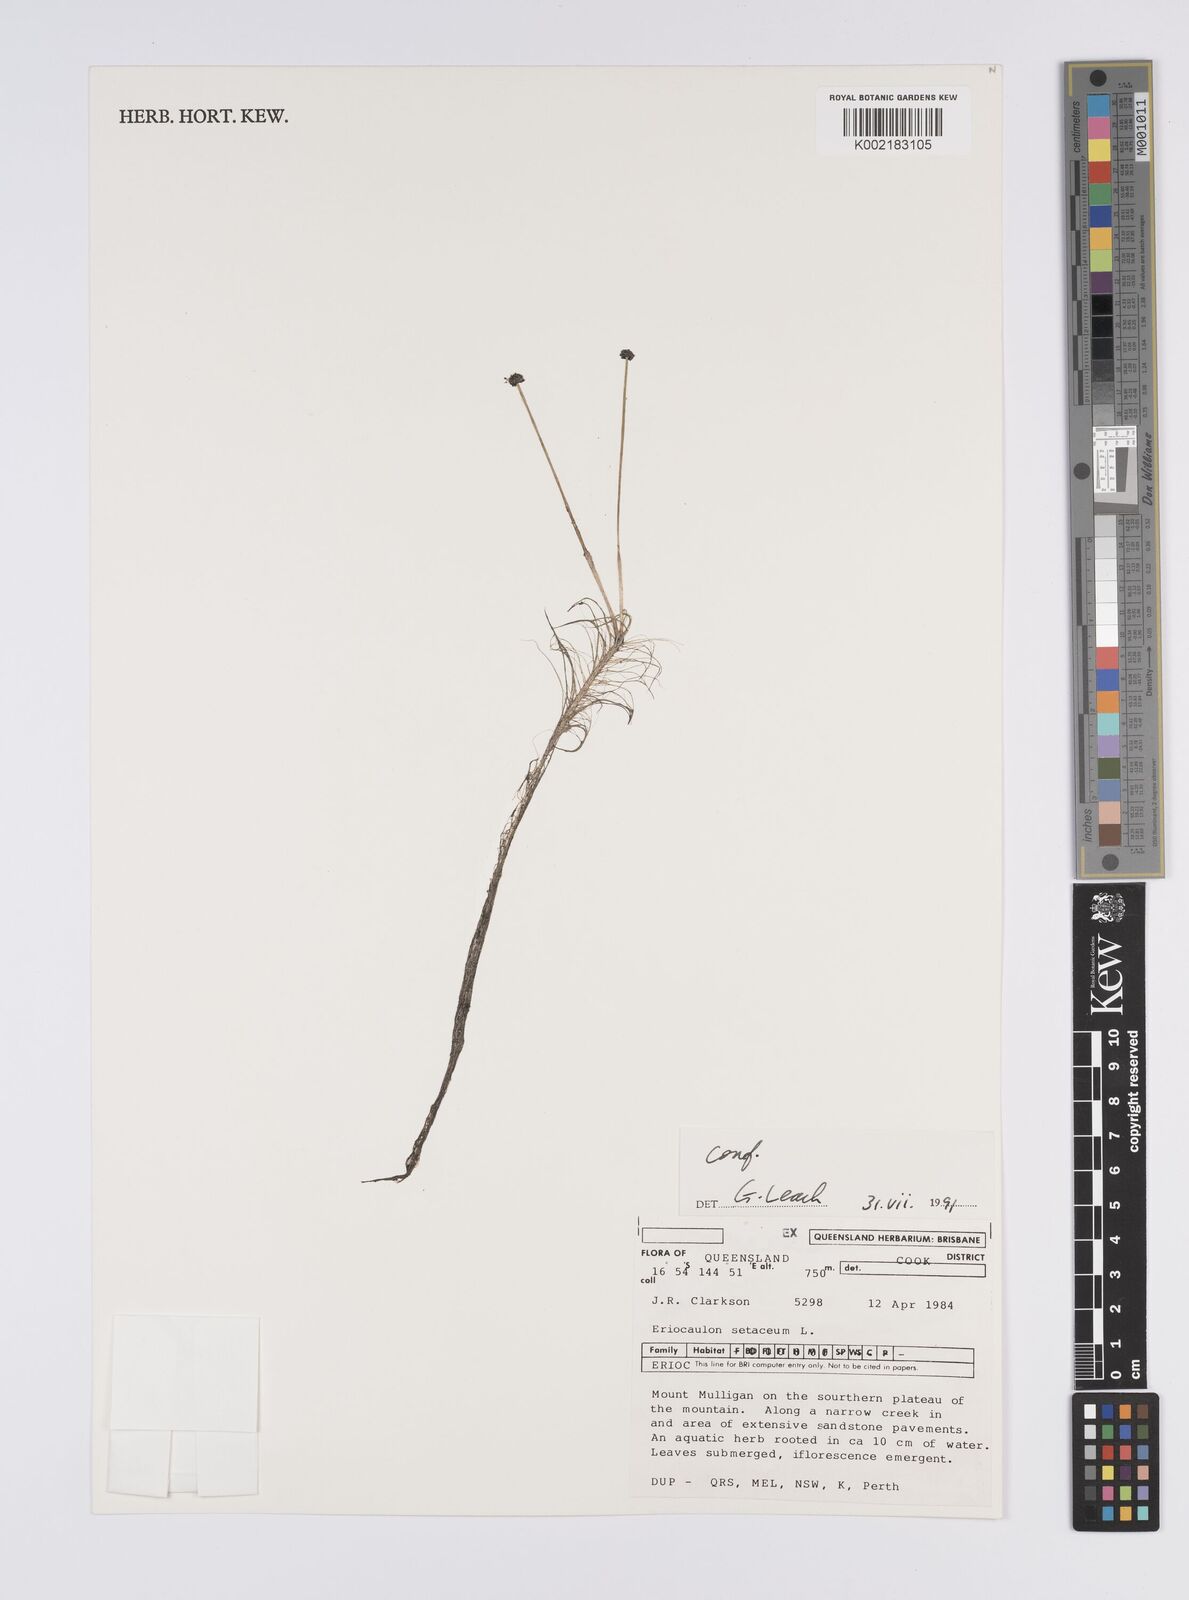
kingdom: Plantae
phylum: Tracheophyta
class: Liliopsida
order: Poales
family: Eriocaulaceae
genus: Eriocaulon
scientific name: Eriocaulon setaceum
